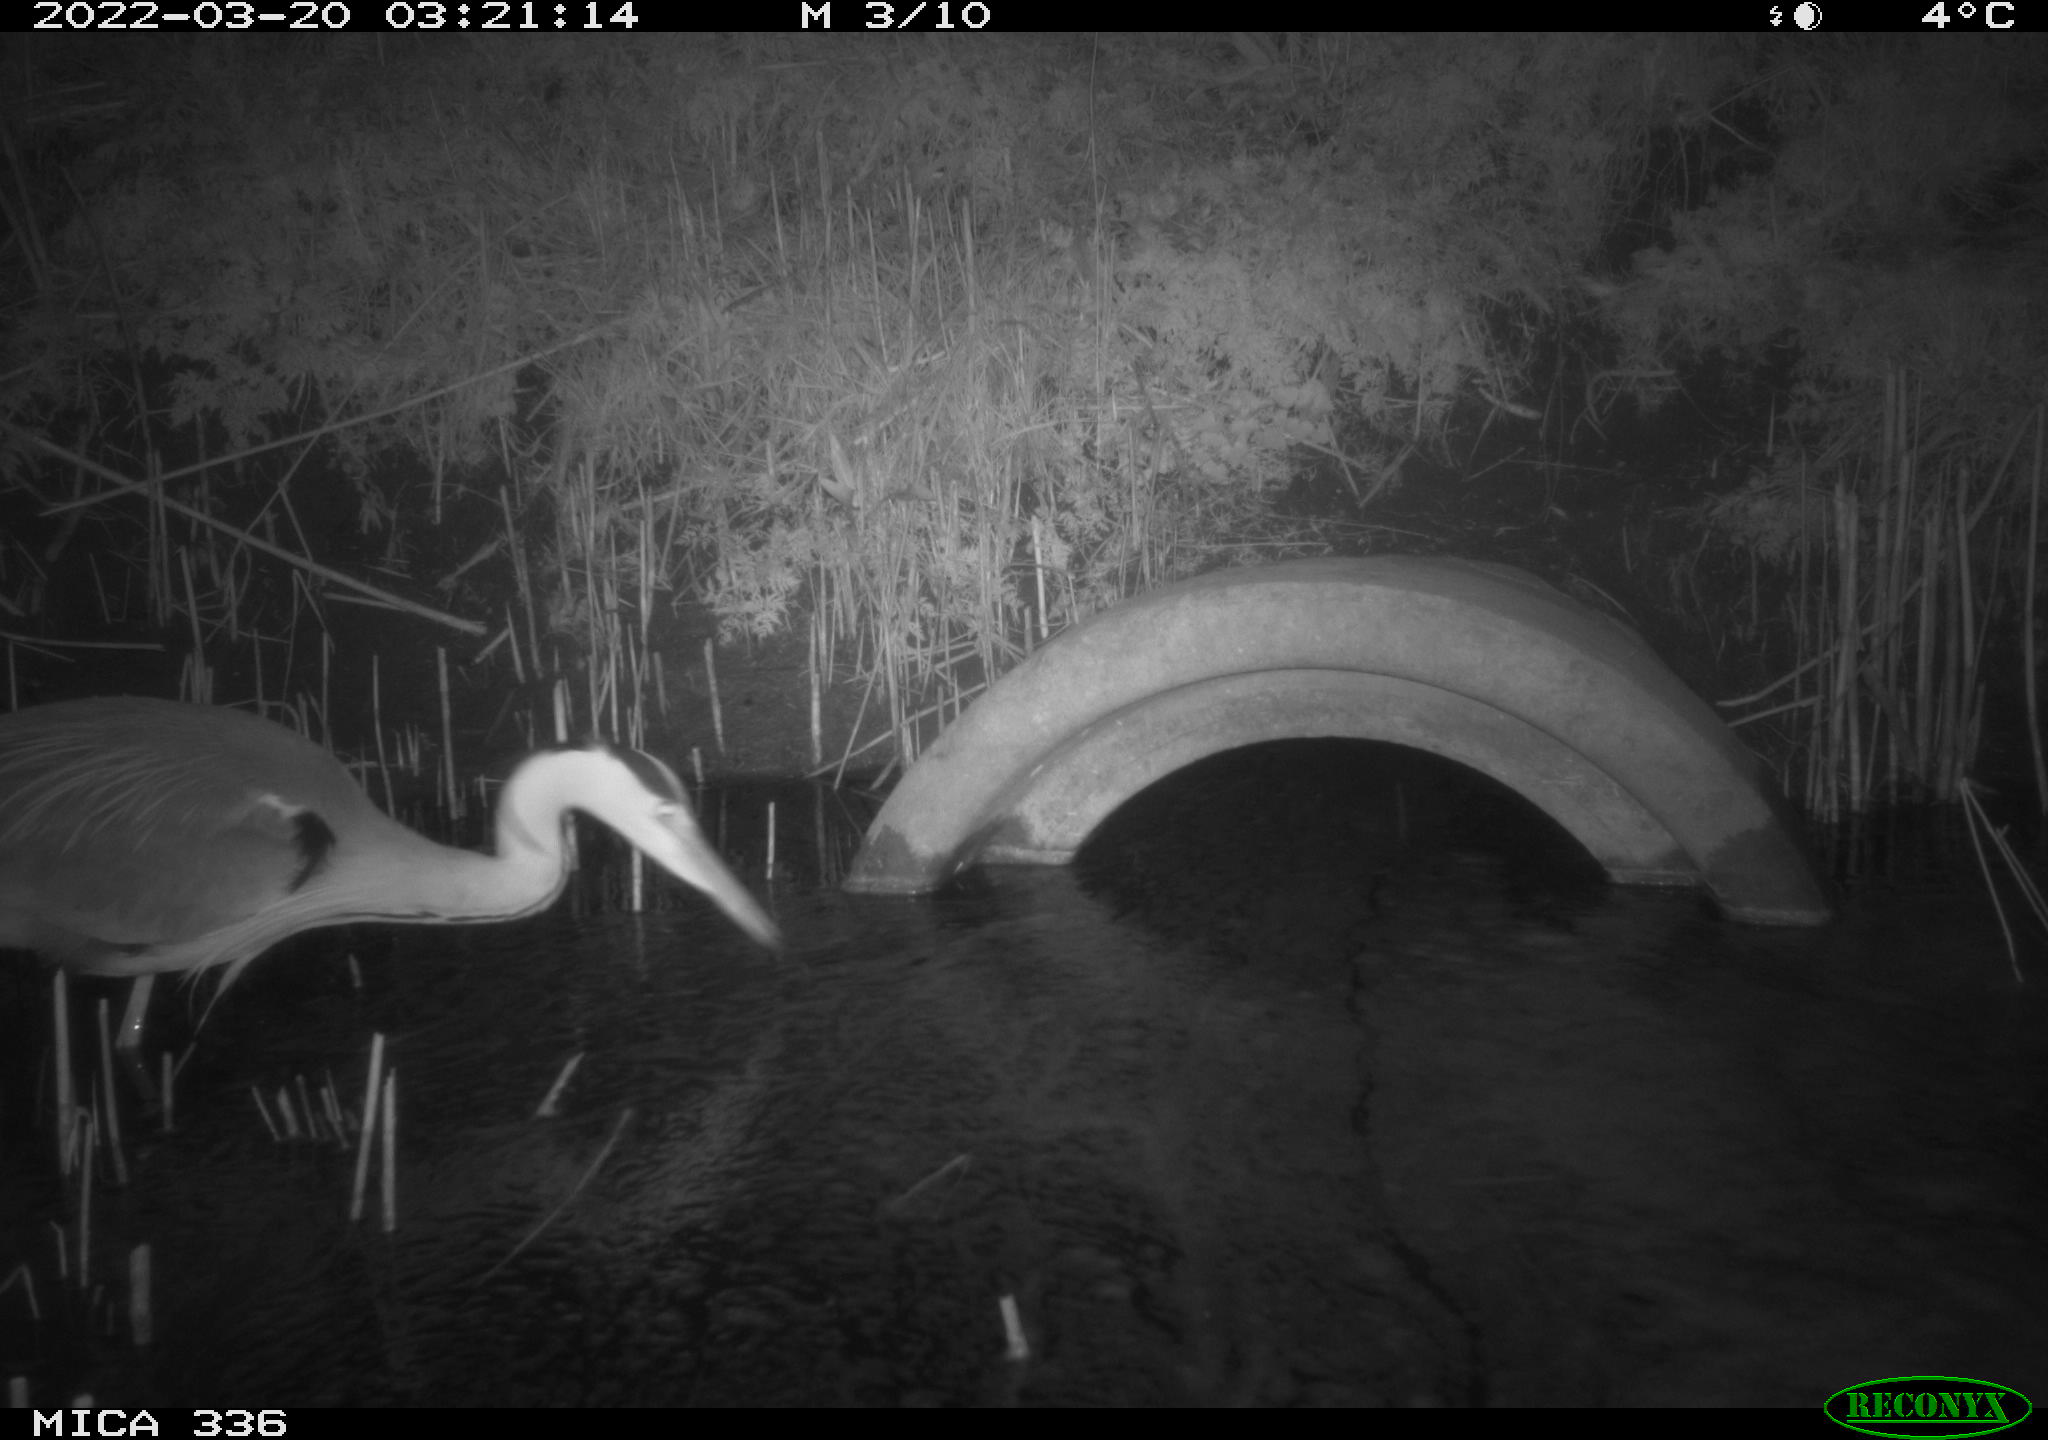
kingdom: Animalia
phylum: Chordata
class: Aves
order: Pelecaniformes
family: Ardeidae
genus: Ardea
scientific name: Ardea cinerea
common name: Grey heron
